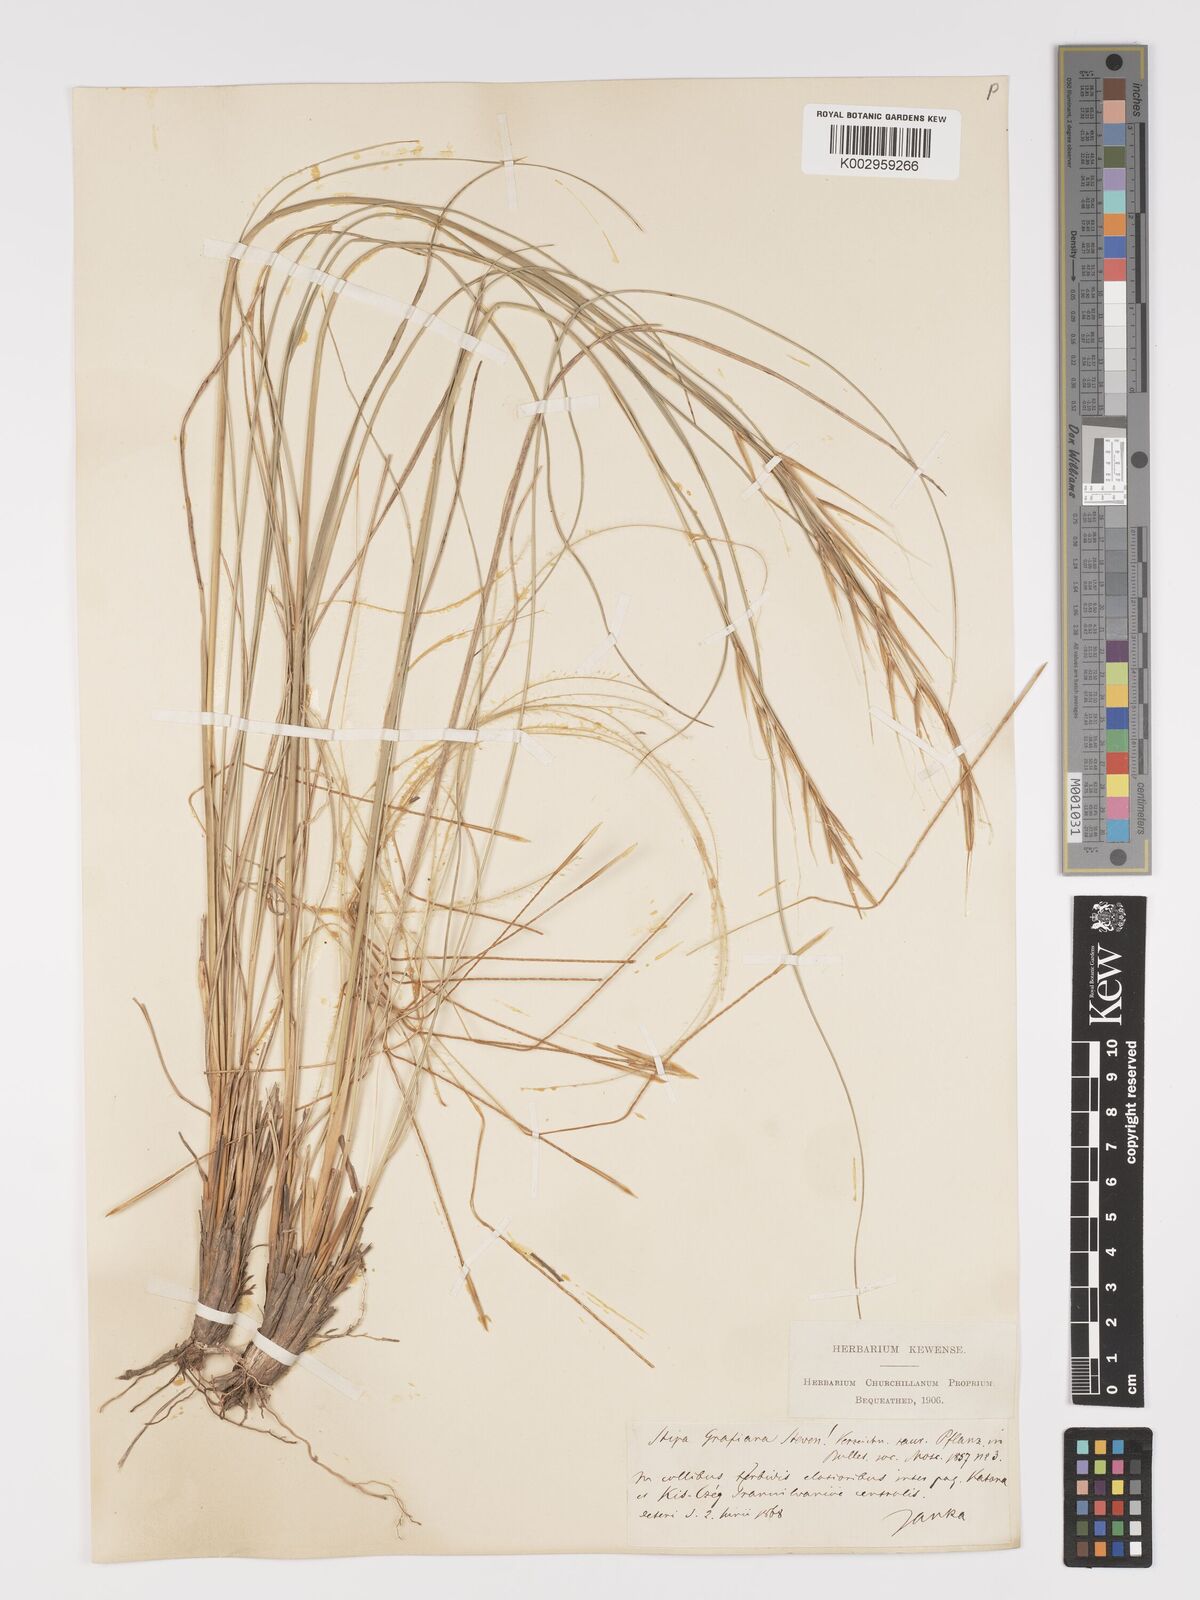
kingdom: Plantae
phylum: Tracheophyta
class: Liliopsida
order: Poales
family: Poaceae
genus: Stipa
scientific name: Stipa pulcherrima
